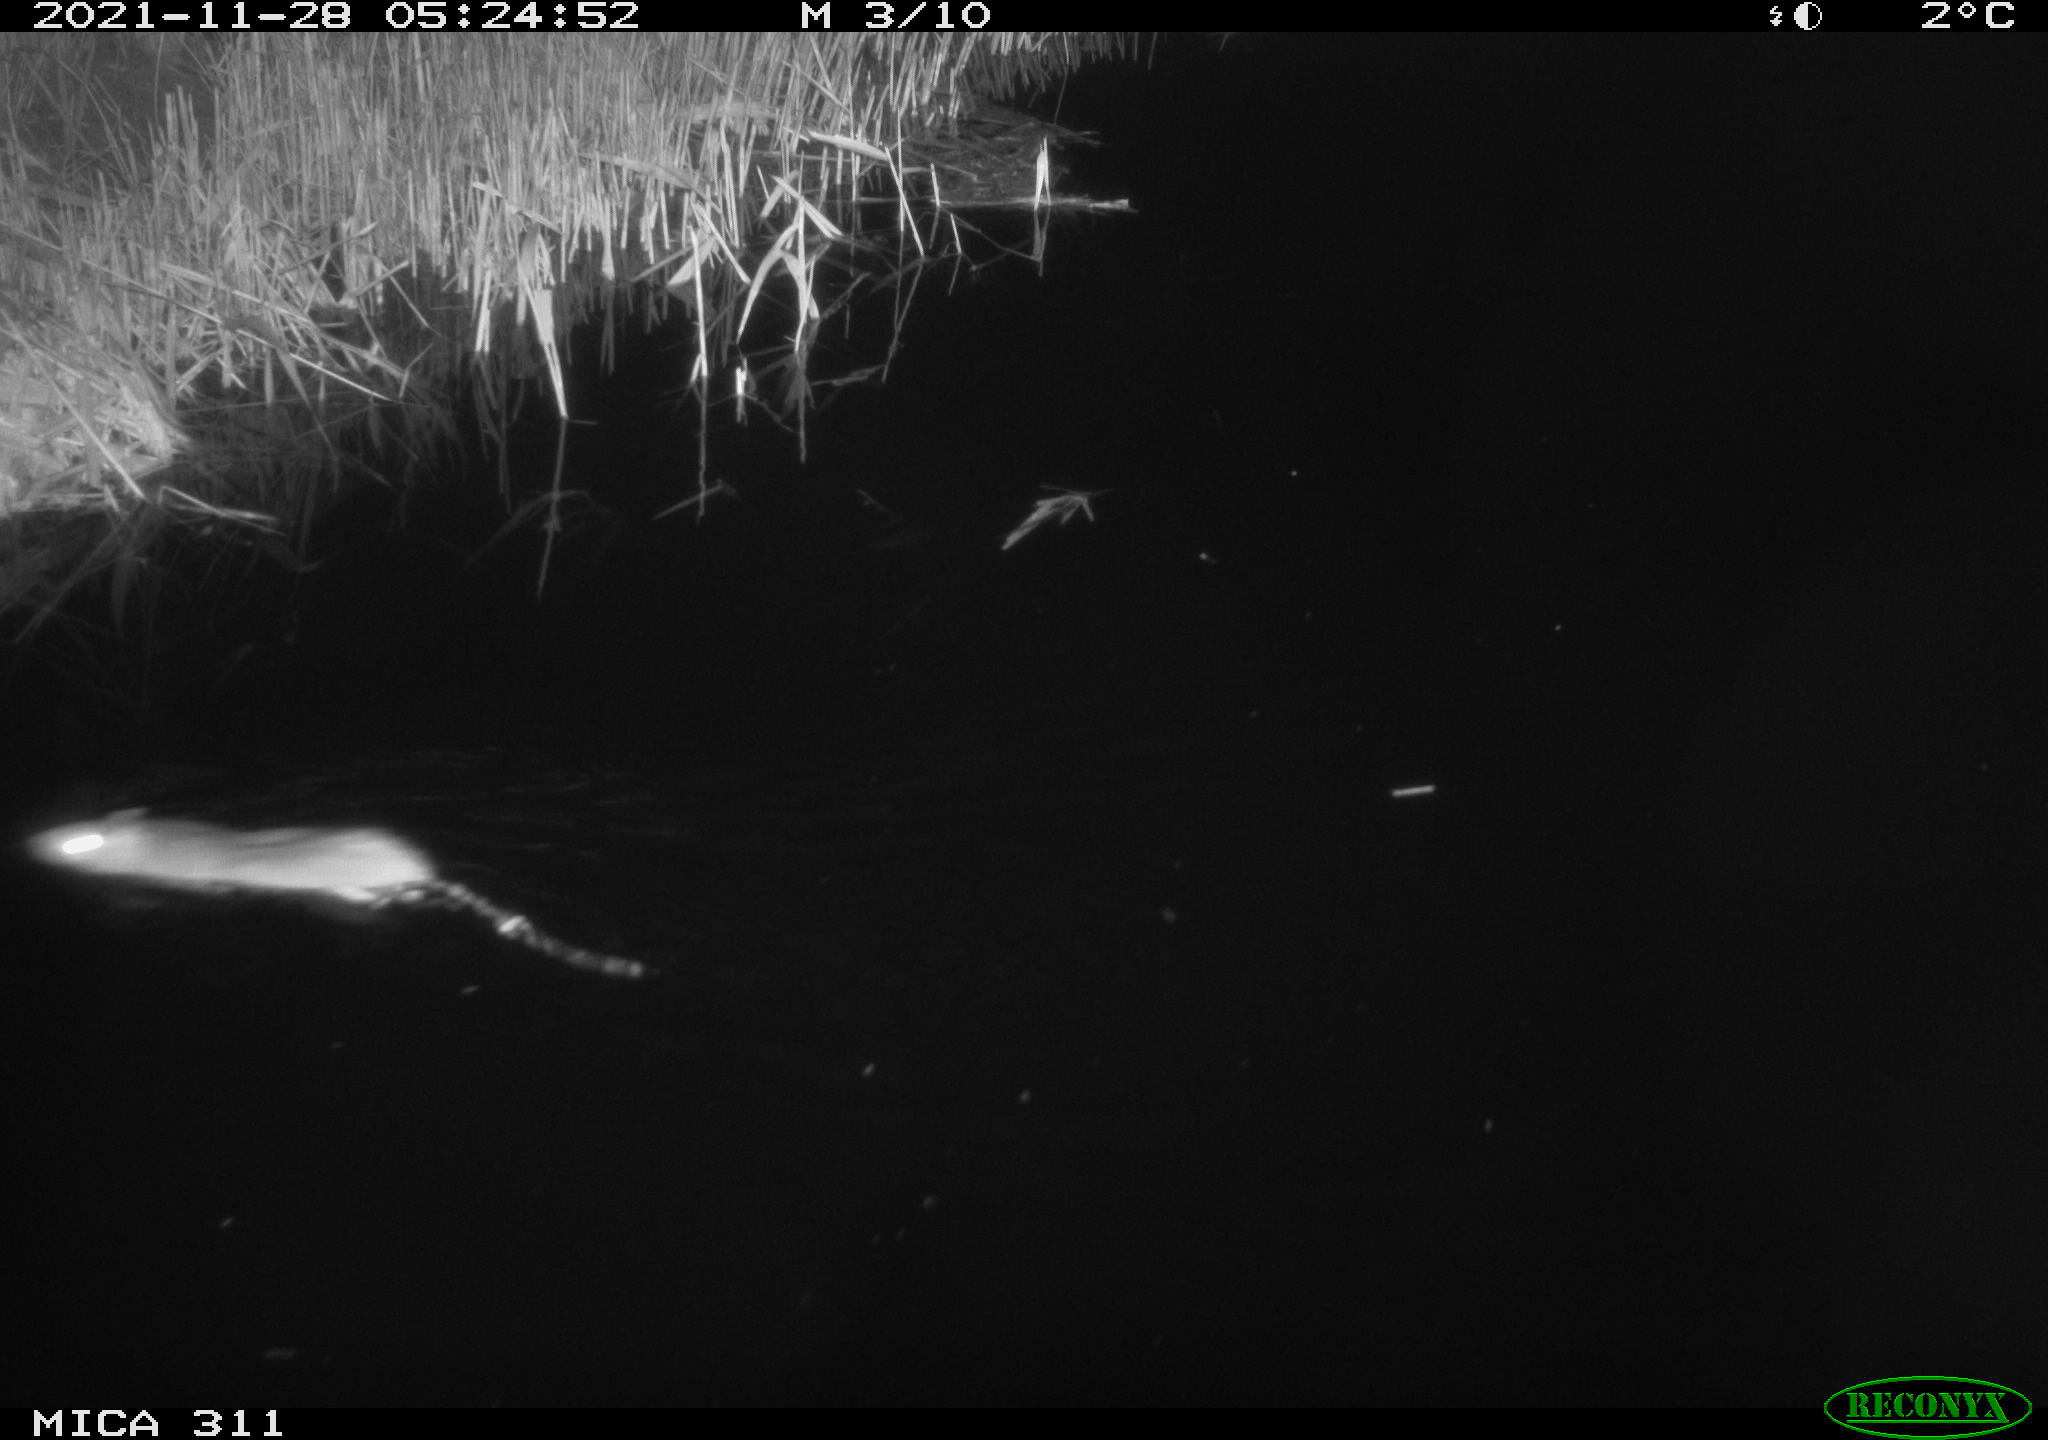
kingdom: Animalia
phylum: Chordata
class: Mammalia
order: Rodentia
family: Muridae
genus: Rattus
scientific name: Rattus norvegicus
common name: Brown rat
